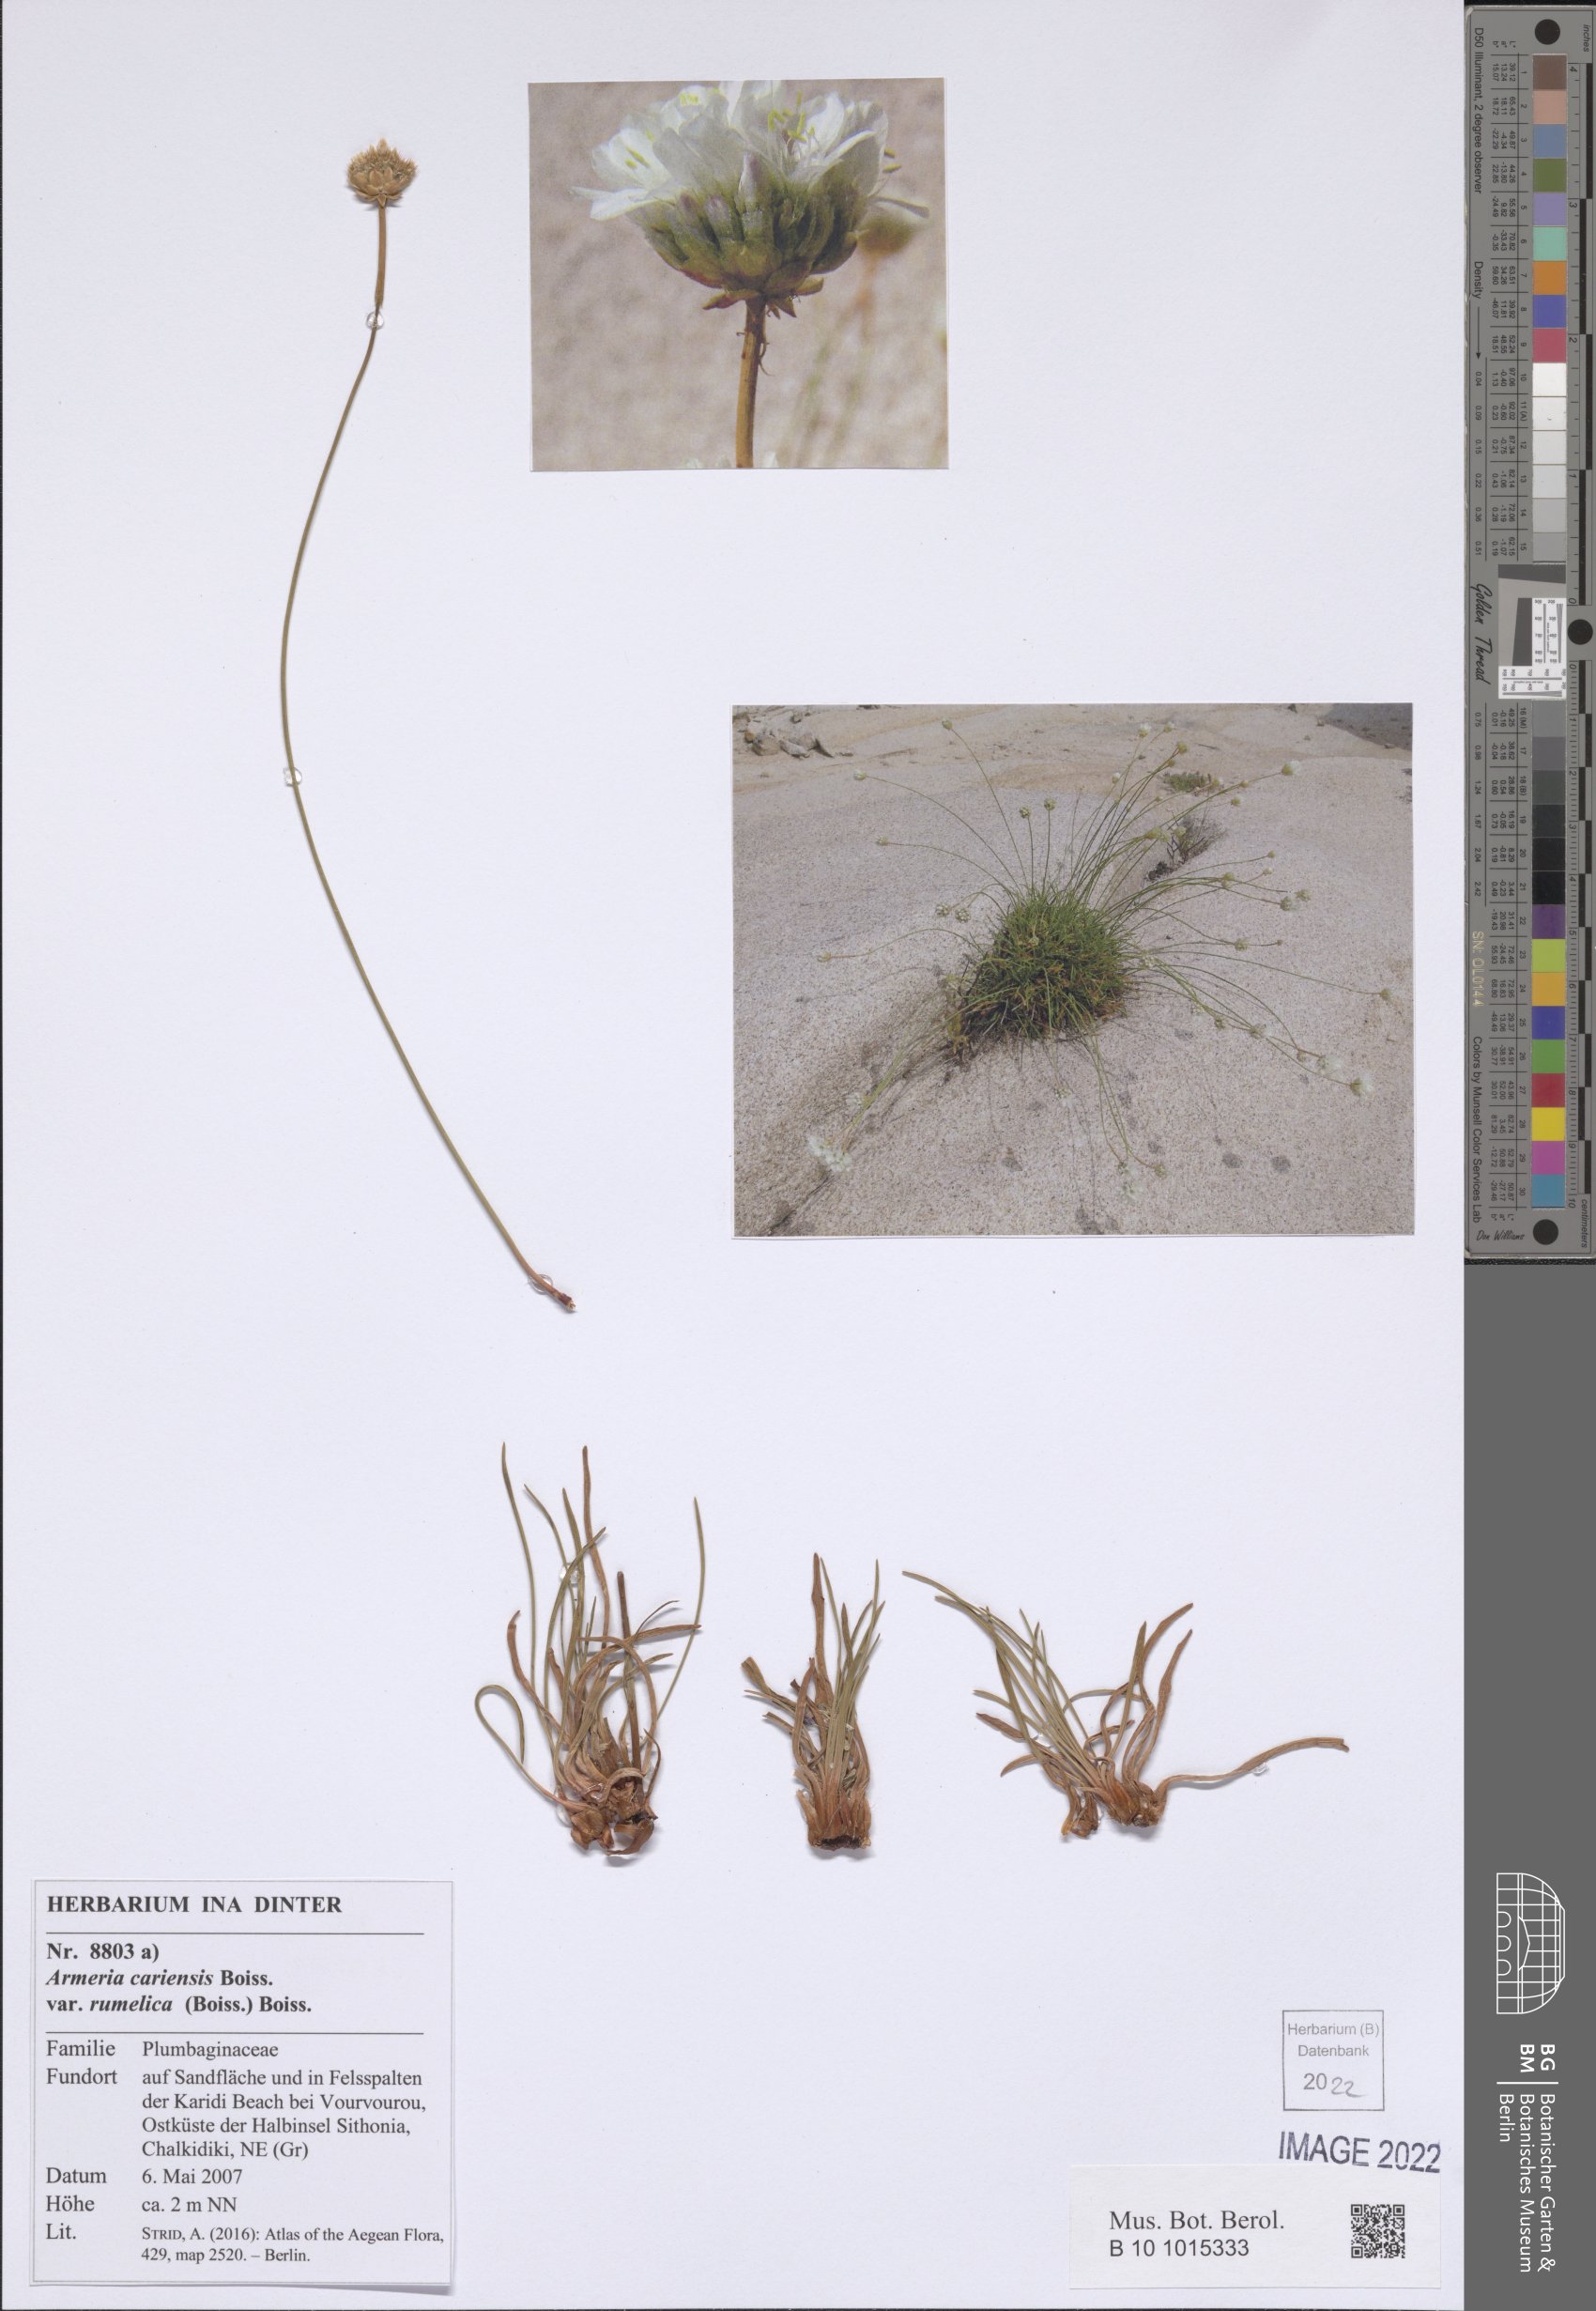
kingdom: Plantae
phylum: Tracheophyta
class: Magnoliopsida
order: Caryophyllales
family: Plumbaginaceae
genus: Armeria
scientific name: Armeria rumelica
